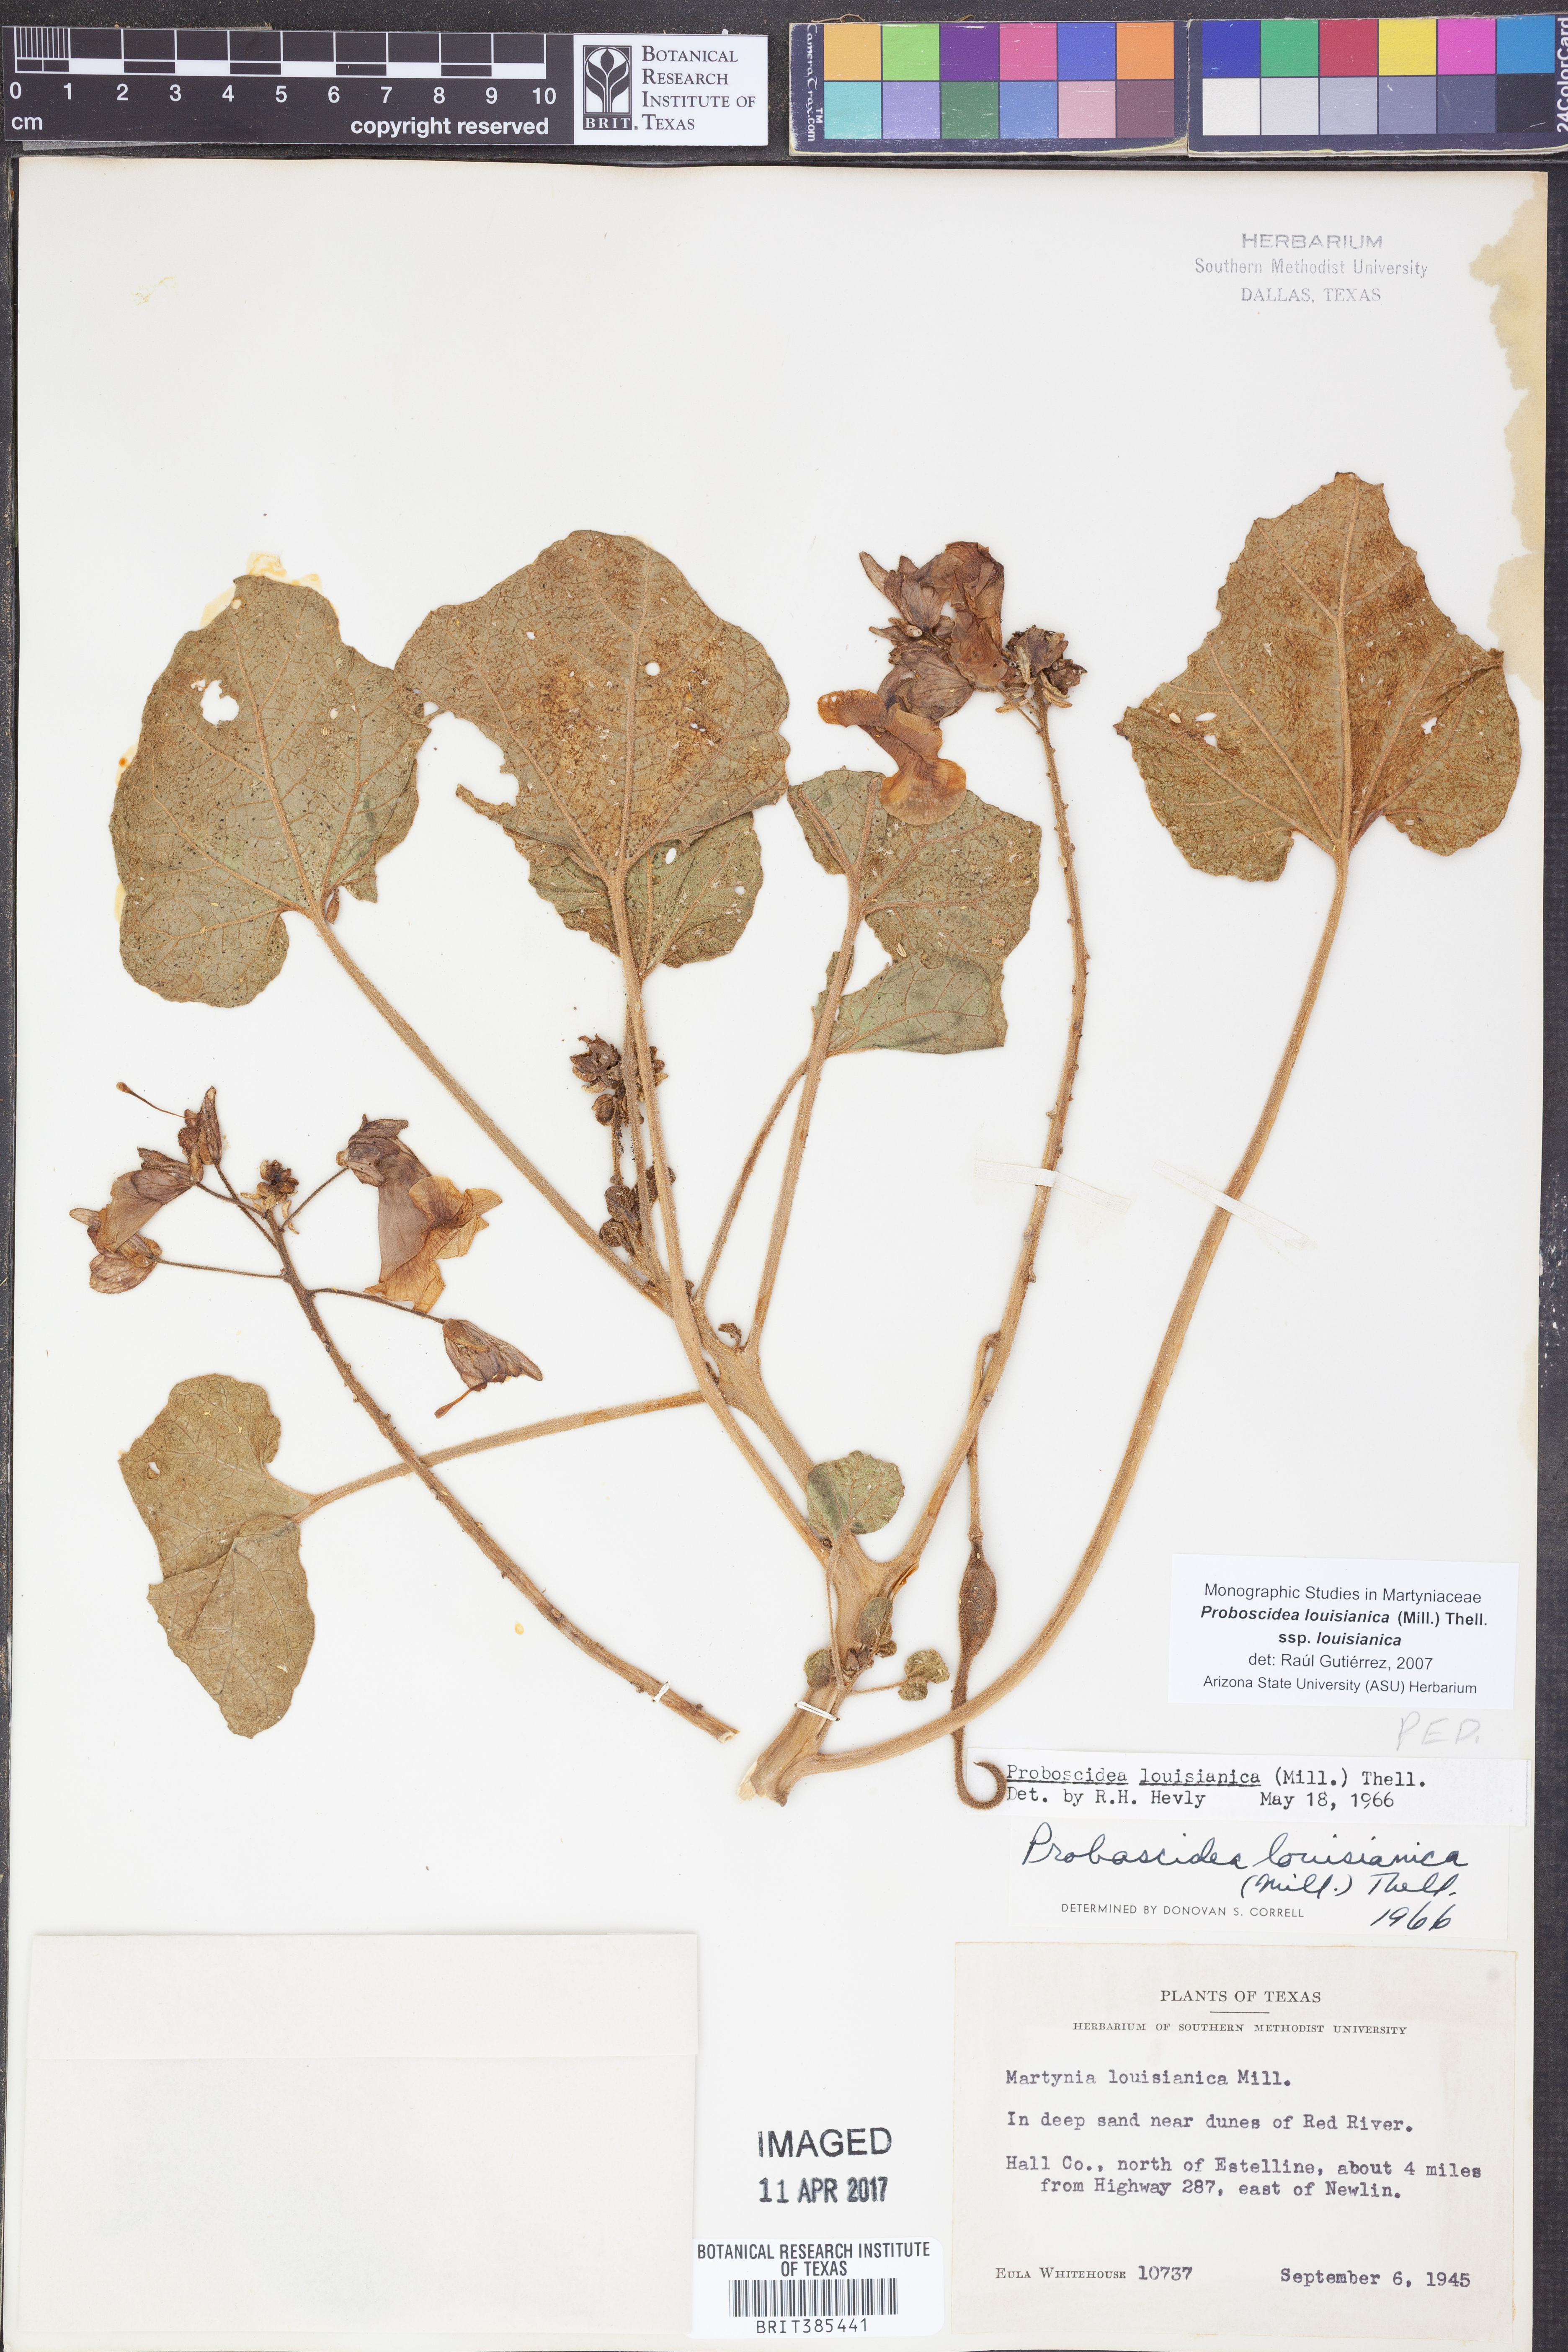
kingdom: Plantae
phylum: Tracheophyta
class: Magnoliopsida
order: Lamiales
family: Martyniaceae
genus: Proboscidea
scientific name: Proboscidea louisianica
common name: Elephant tusks
